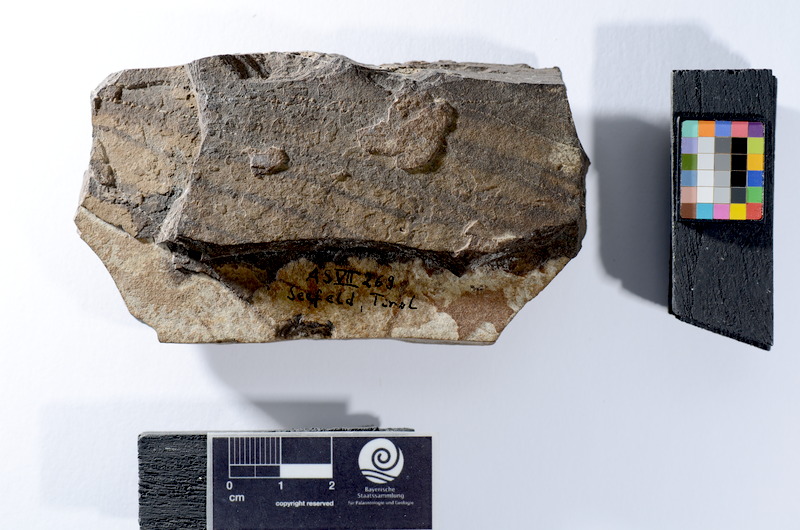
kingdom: Animalia
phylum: Chordata
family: Pholidophoridae
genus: Pholidophorus
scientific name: Pholidophorus latiusculus
